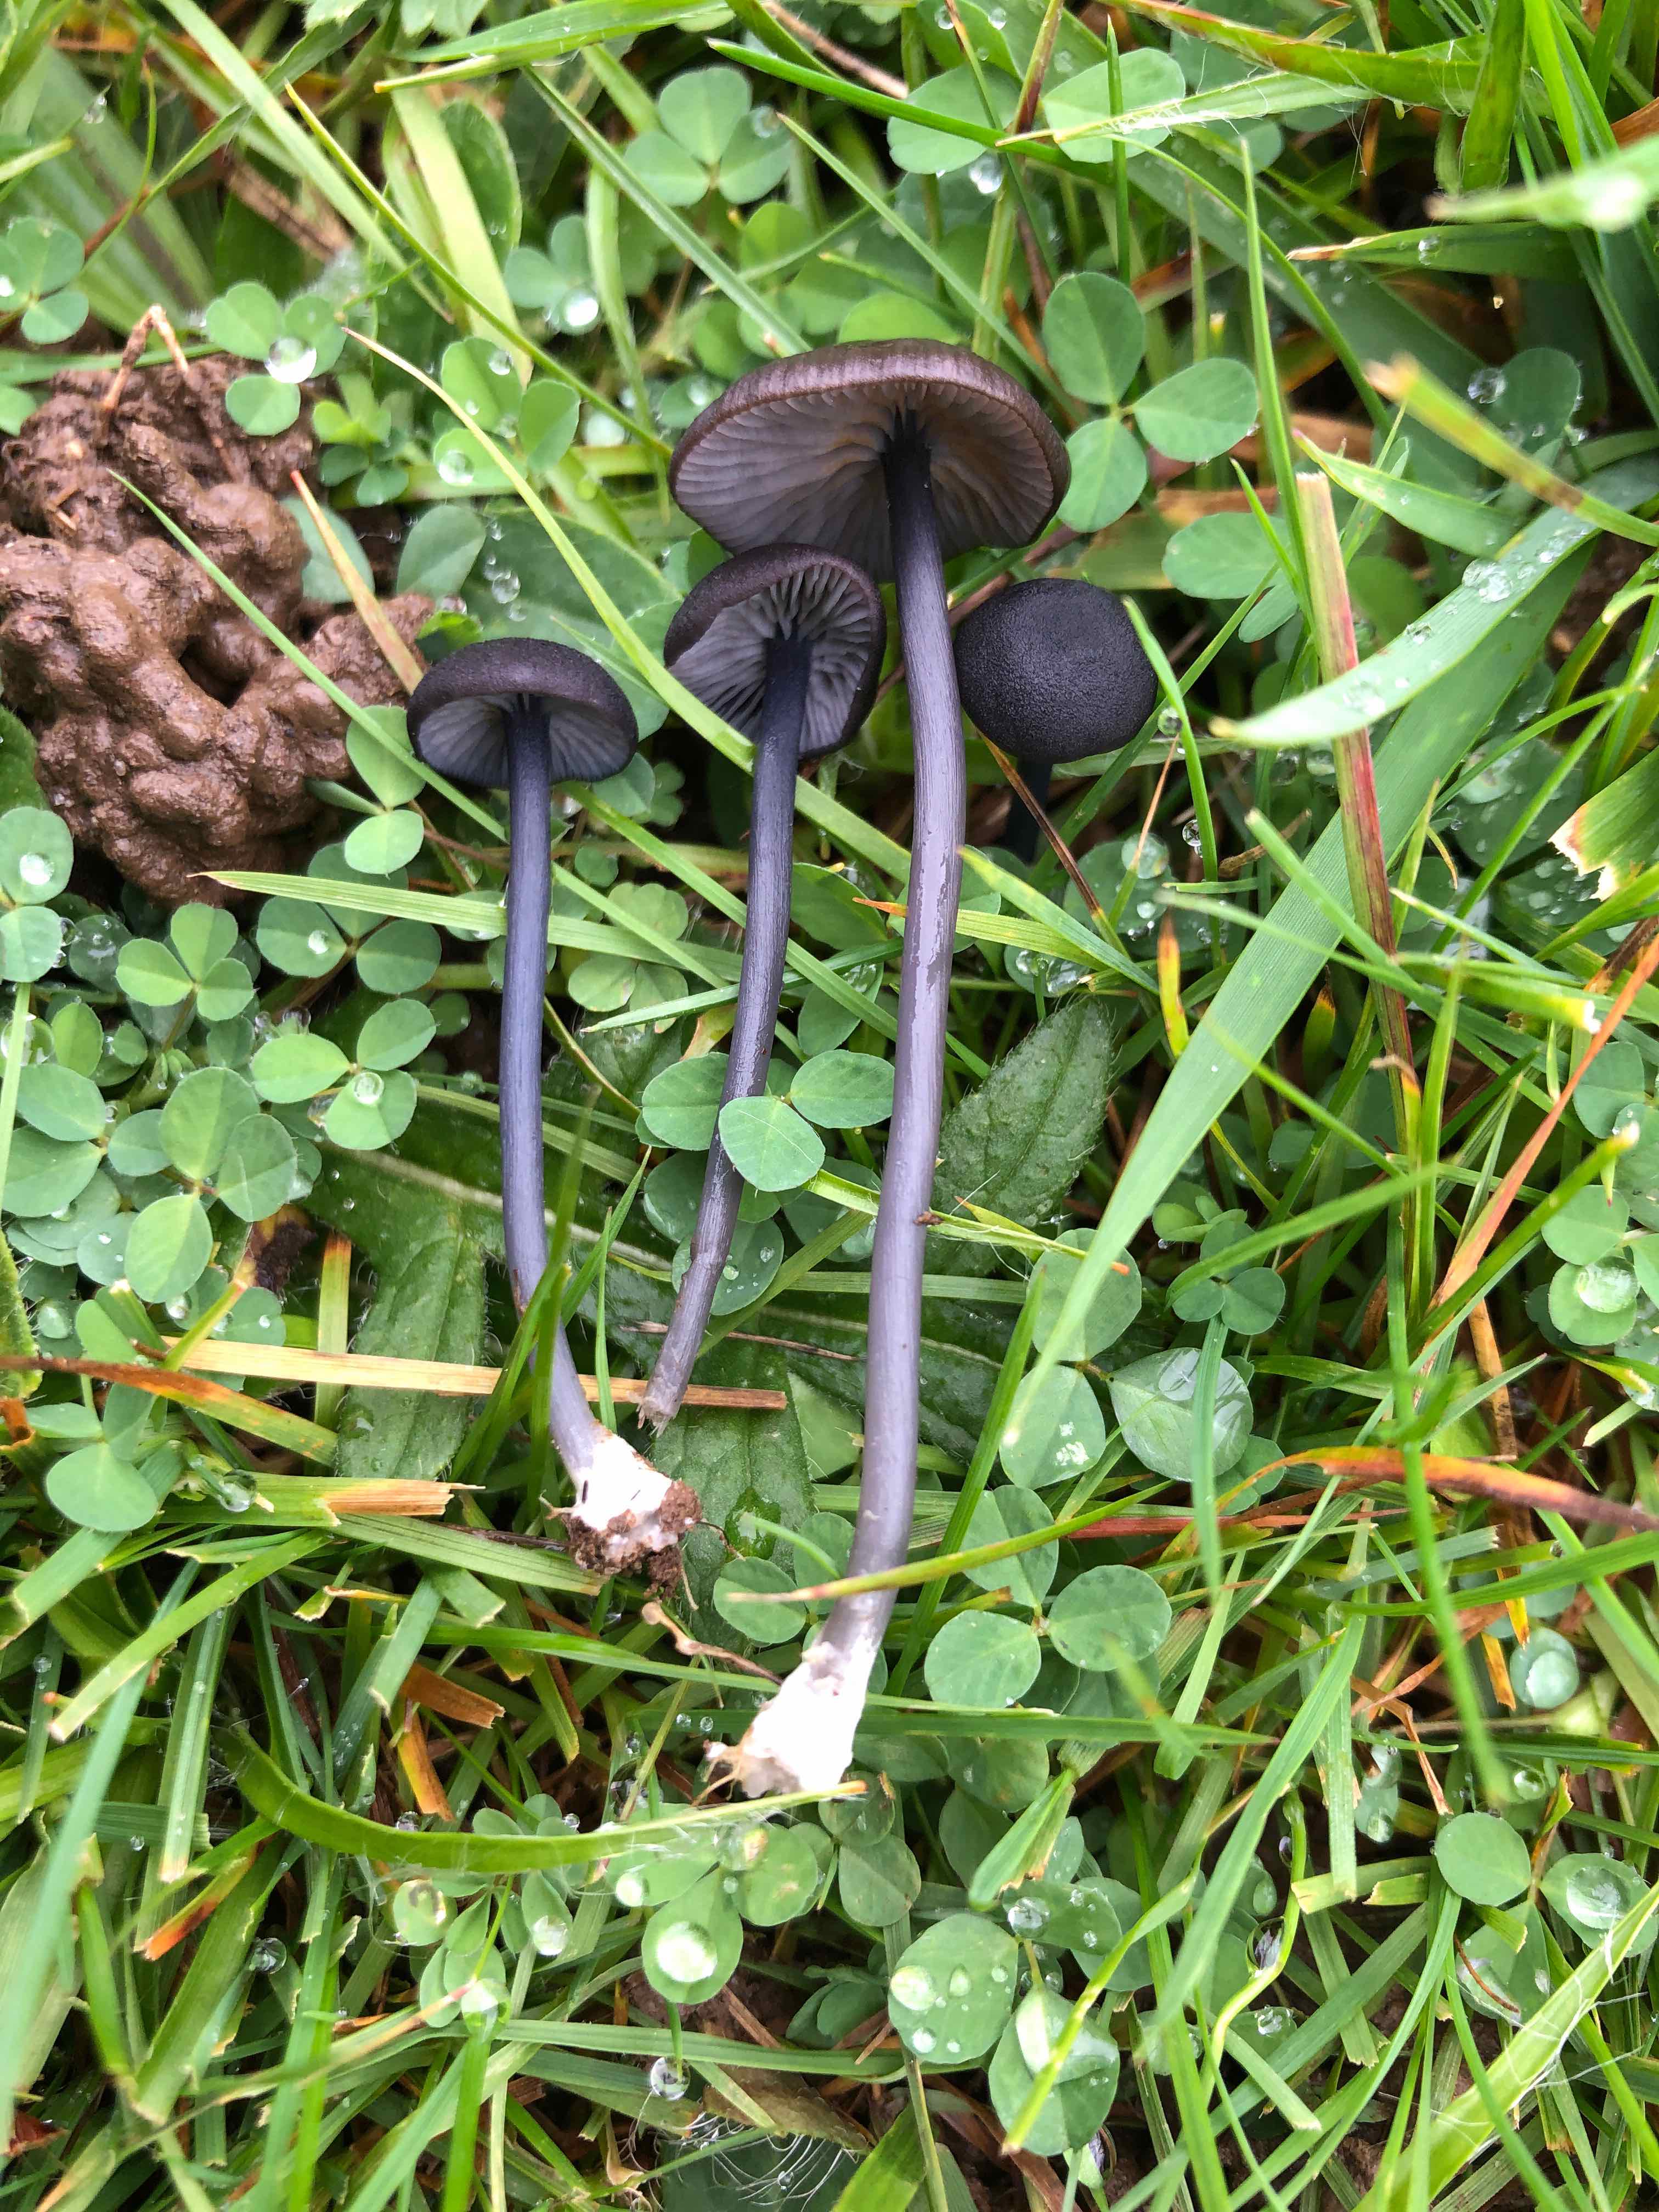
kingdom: Fungi
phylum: Basidiomycota
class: Agaricomycetes
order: Agaricales
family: Entolomataceae
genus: Entoloma
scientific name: Entoloma chalybeum
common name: blåbladet rødblad
